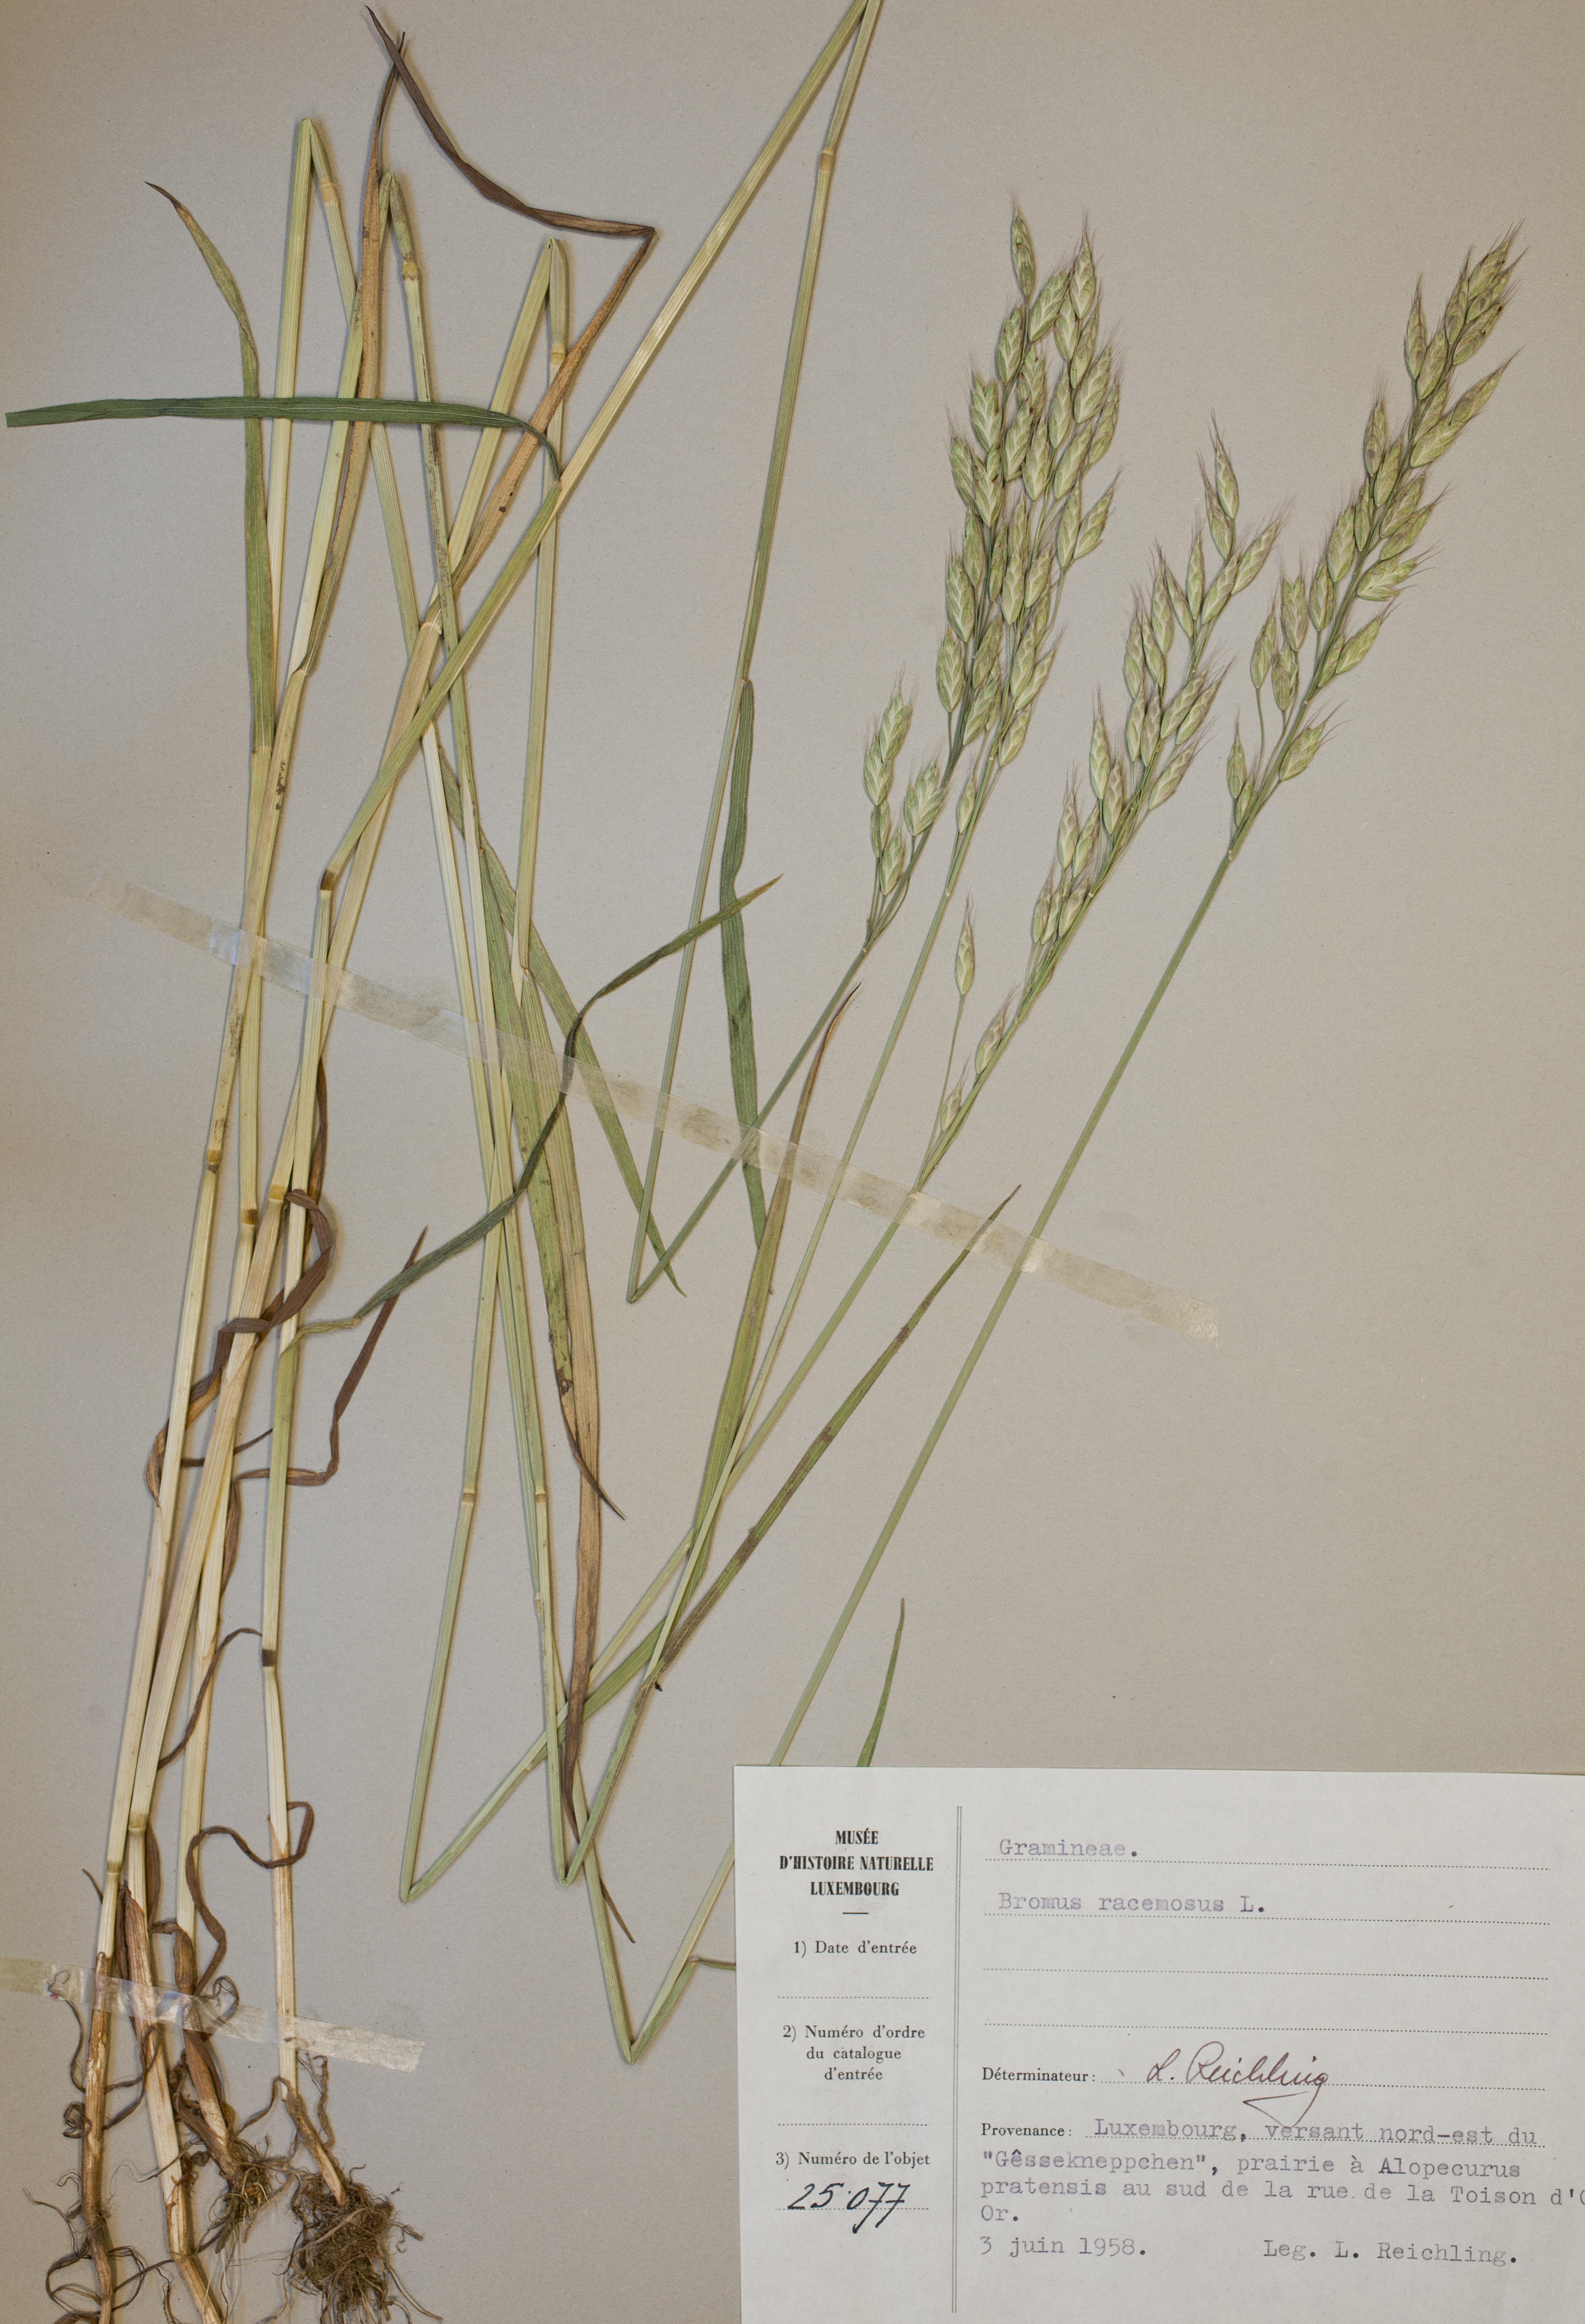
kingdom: Plantae
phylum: Tracheophyta
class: Liliopsida
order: Poales
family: Poaceae
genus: Bromus
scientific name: Bromus racemosus
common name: Bald brome
